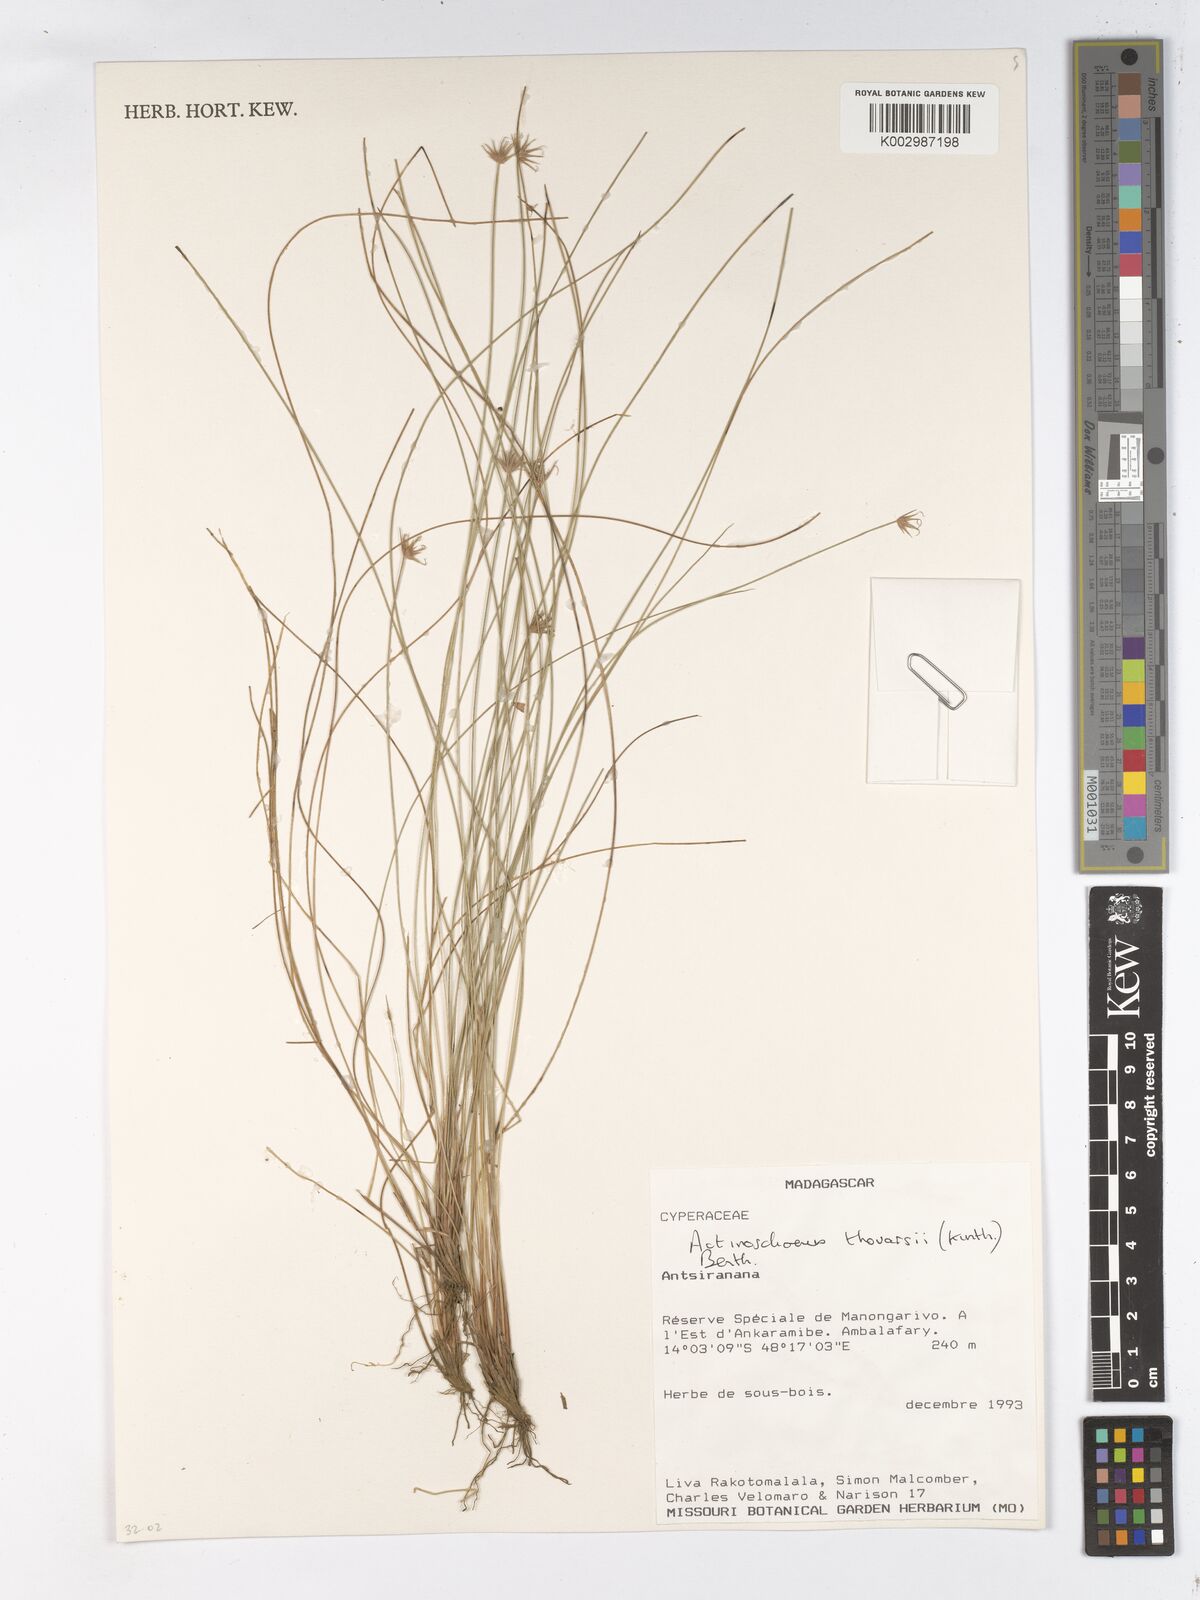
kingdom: Plantae
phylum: Tracheophyta
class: Liliopsida
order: Poales
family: Cyperaceae
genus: Actinoschoenus
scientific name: Actinoschoenus aphyllus
